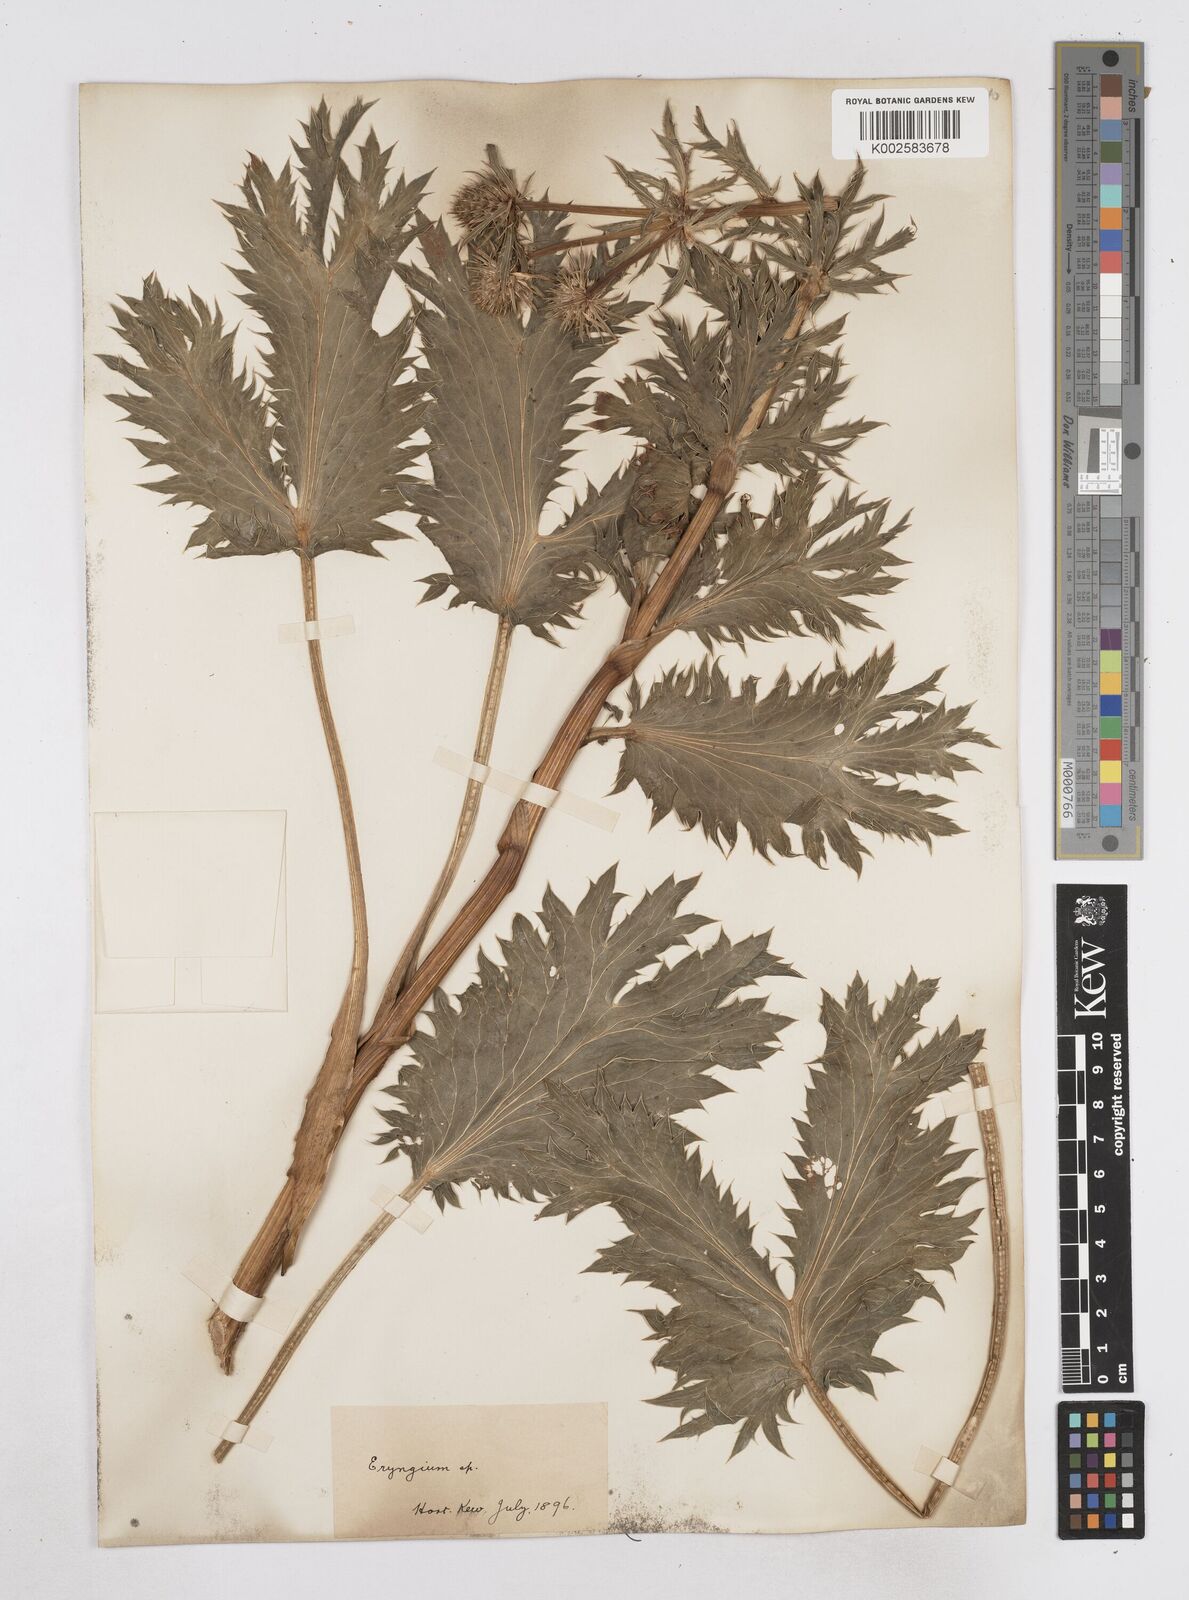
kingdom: Plantae
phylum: Tracheophyta
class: Magnoliopsida
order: Apiales
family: Apiaceae
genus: Eryngium
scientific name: Eryngium
